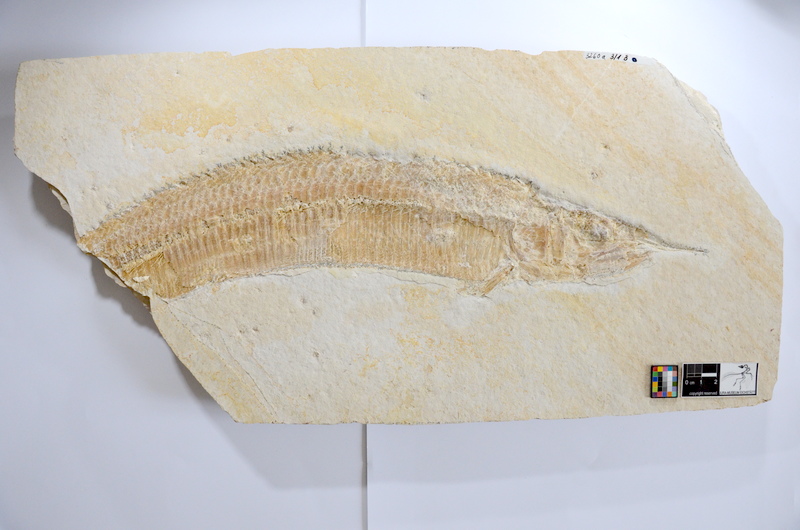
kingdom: Animalia
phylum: Chordata
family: Aspidorhynchidae
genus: Aspidorhynchus
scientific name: Aspidorhynchus acutirostris
